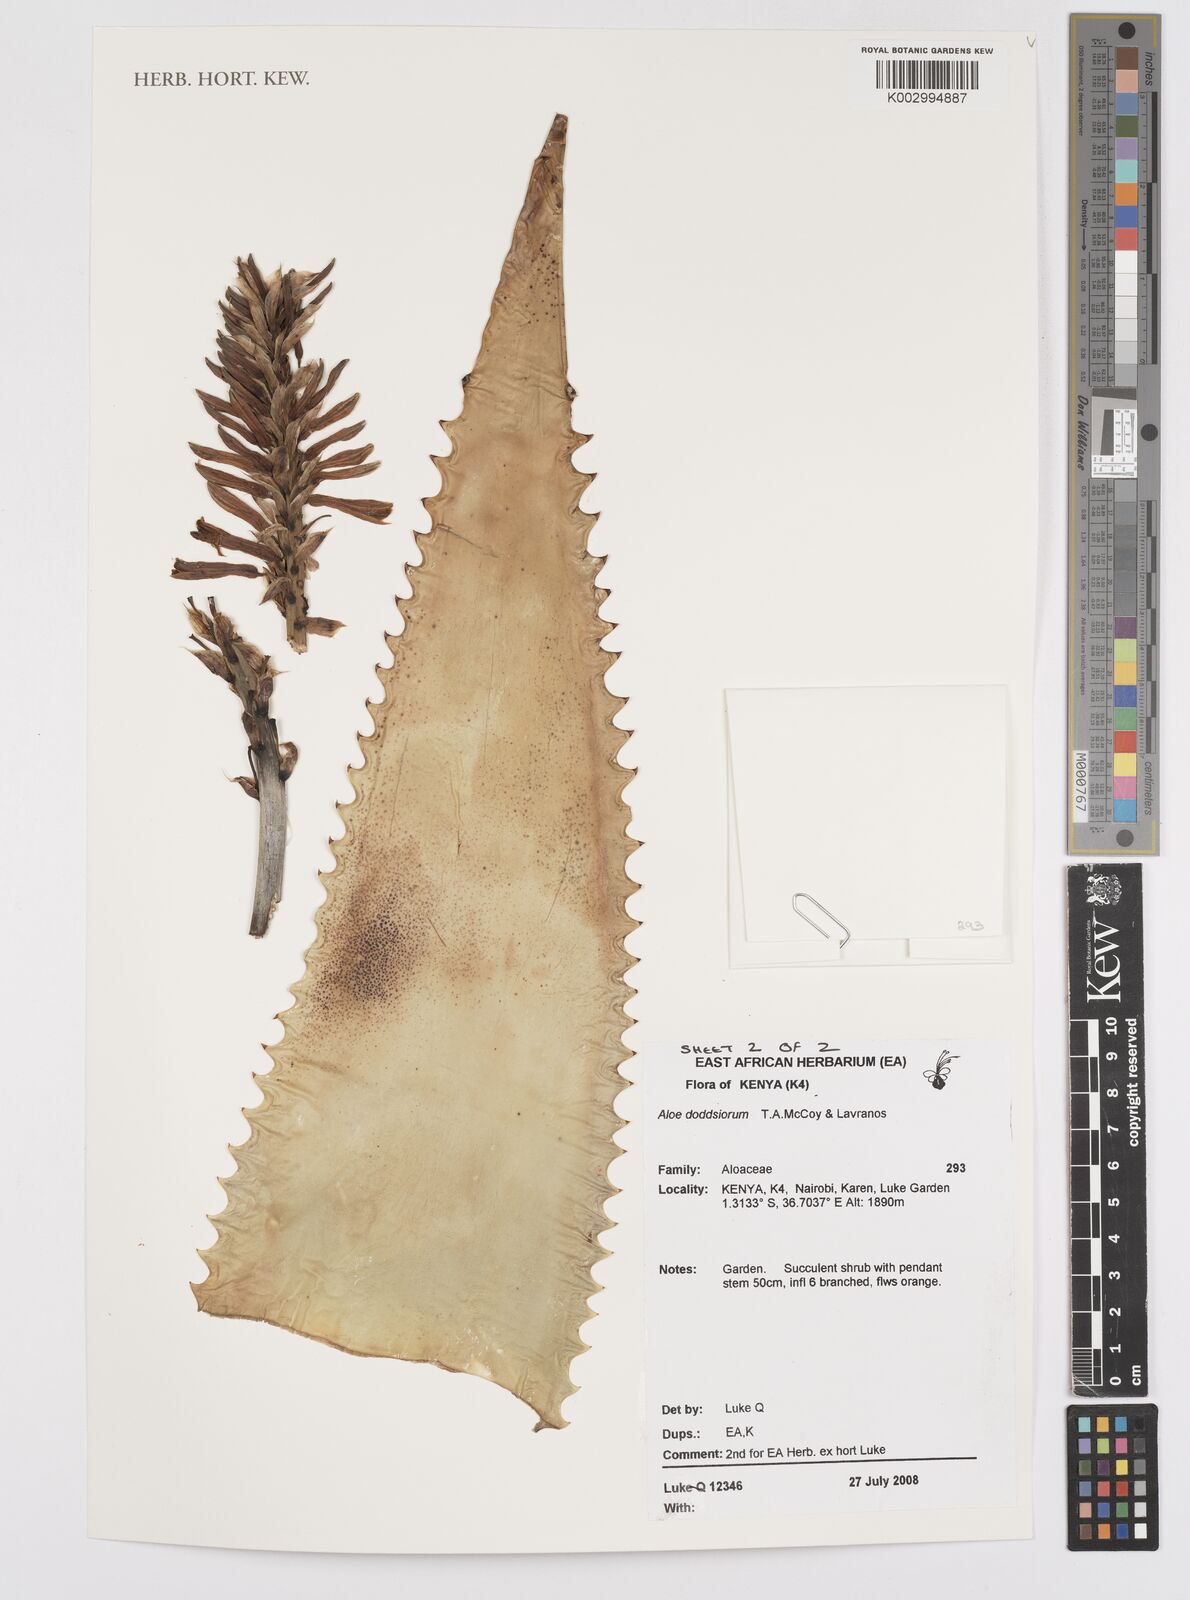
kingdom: Plantae
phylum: Tracheophyta
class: Liliopsida
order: Asparagales
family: Asphodelaceae
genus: Aloe
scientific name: Aloe doddsiorum
